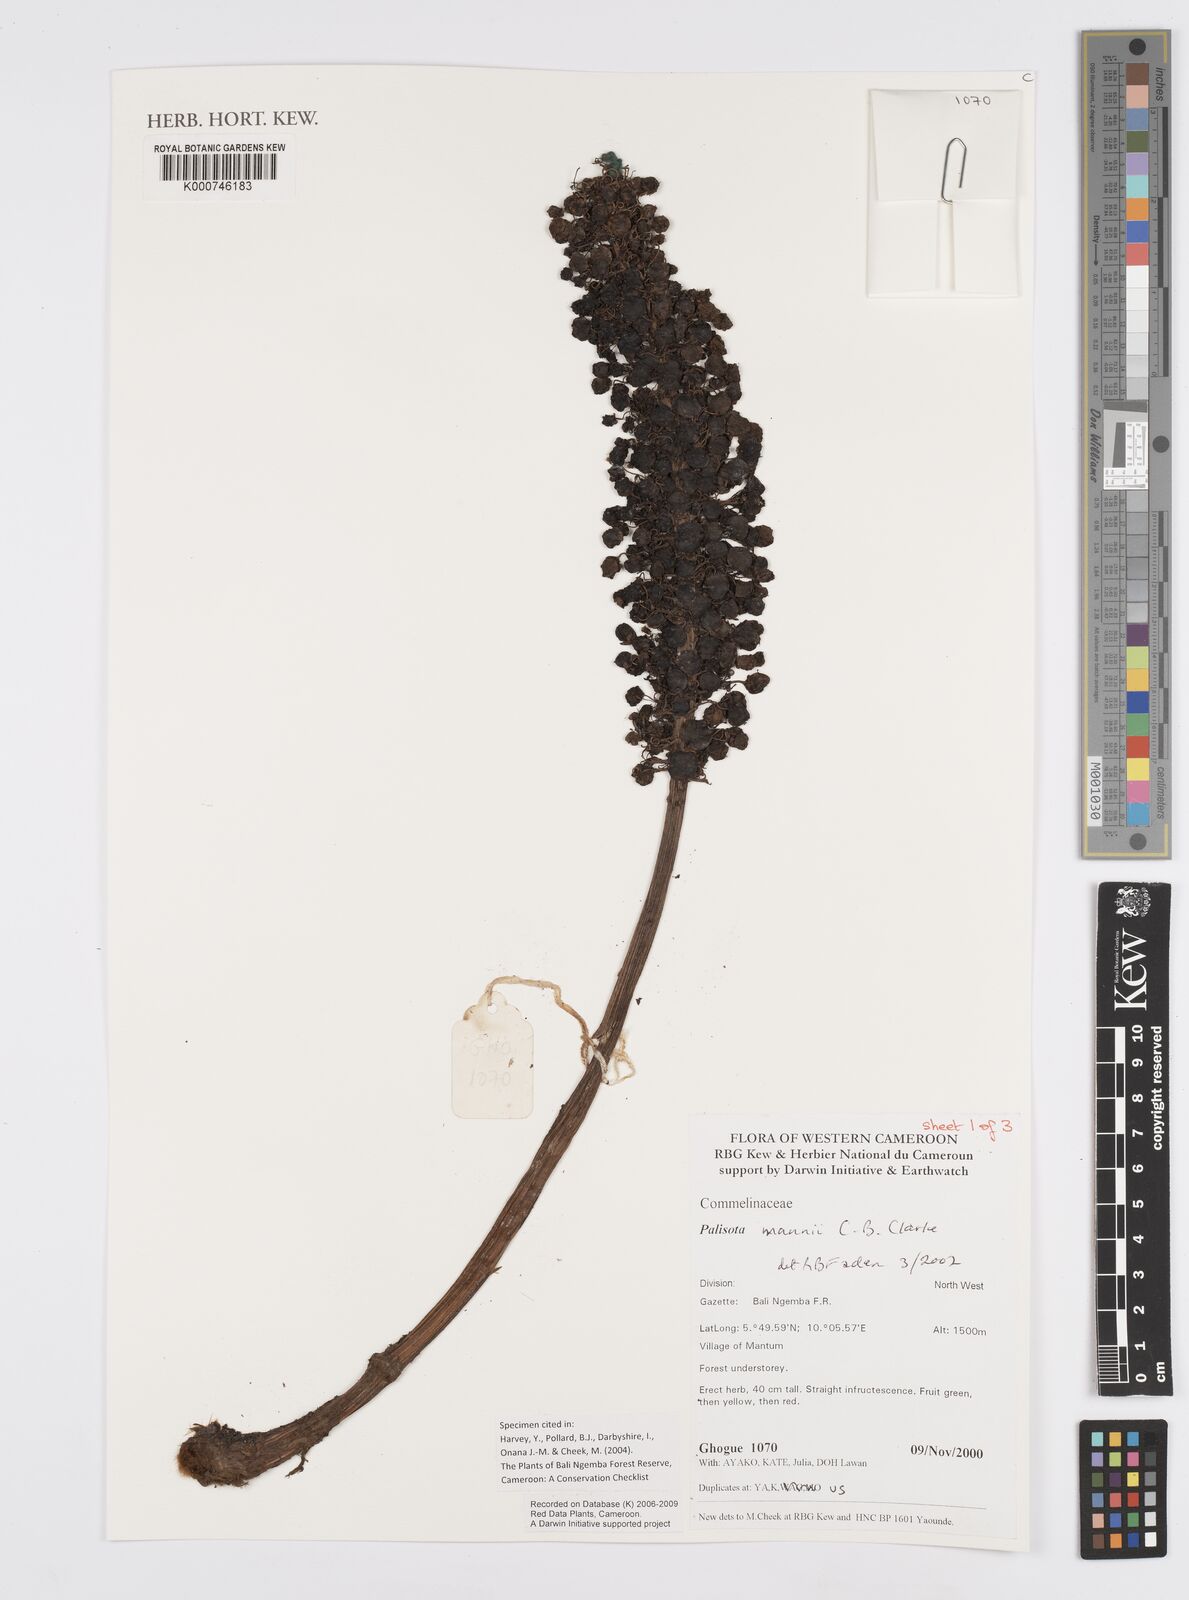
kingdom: Plantae
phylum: Tracheophyta
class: Liliopsida
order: Commelinales
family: Commelinaceae
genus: Palisota
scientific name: Palisota mannii
